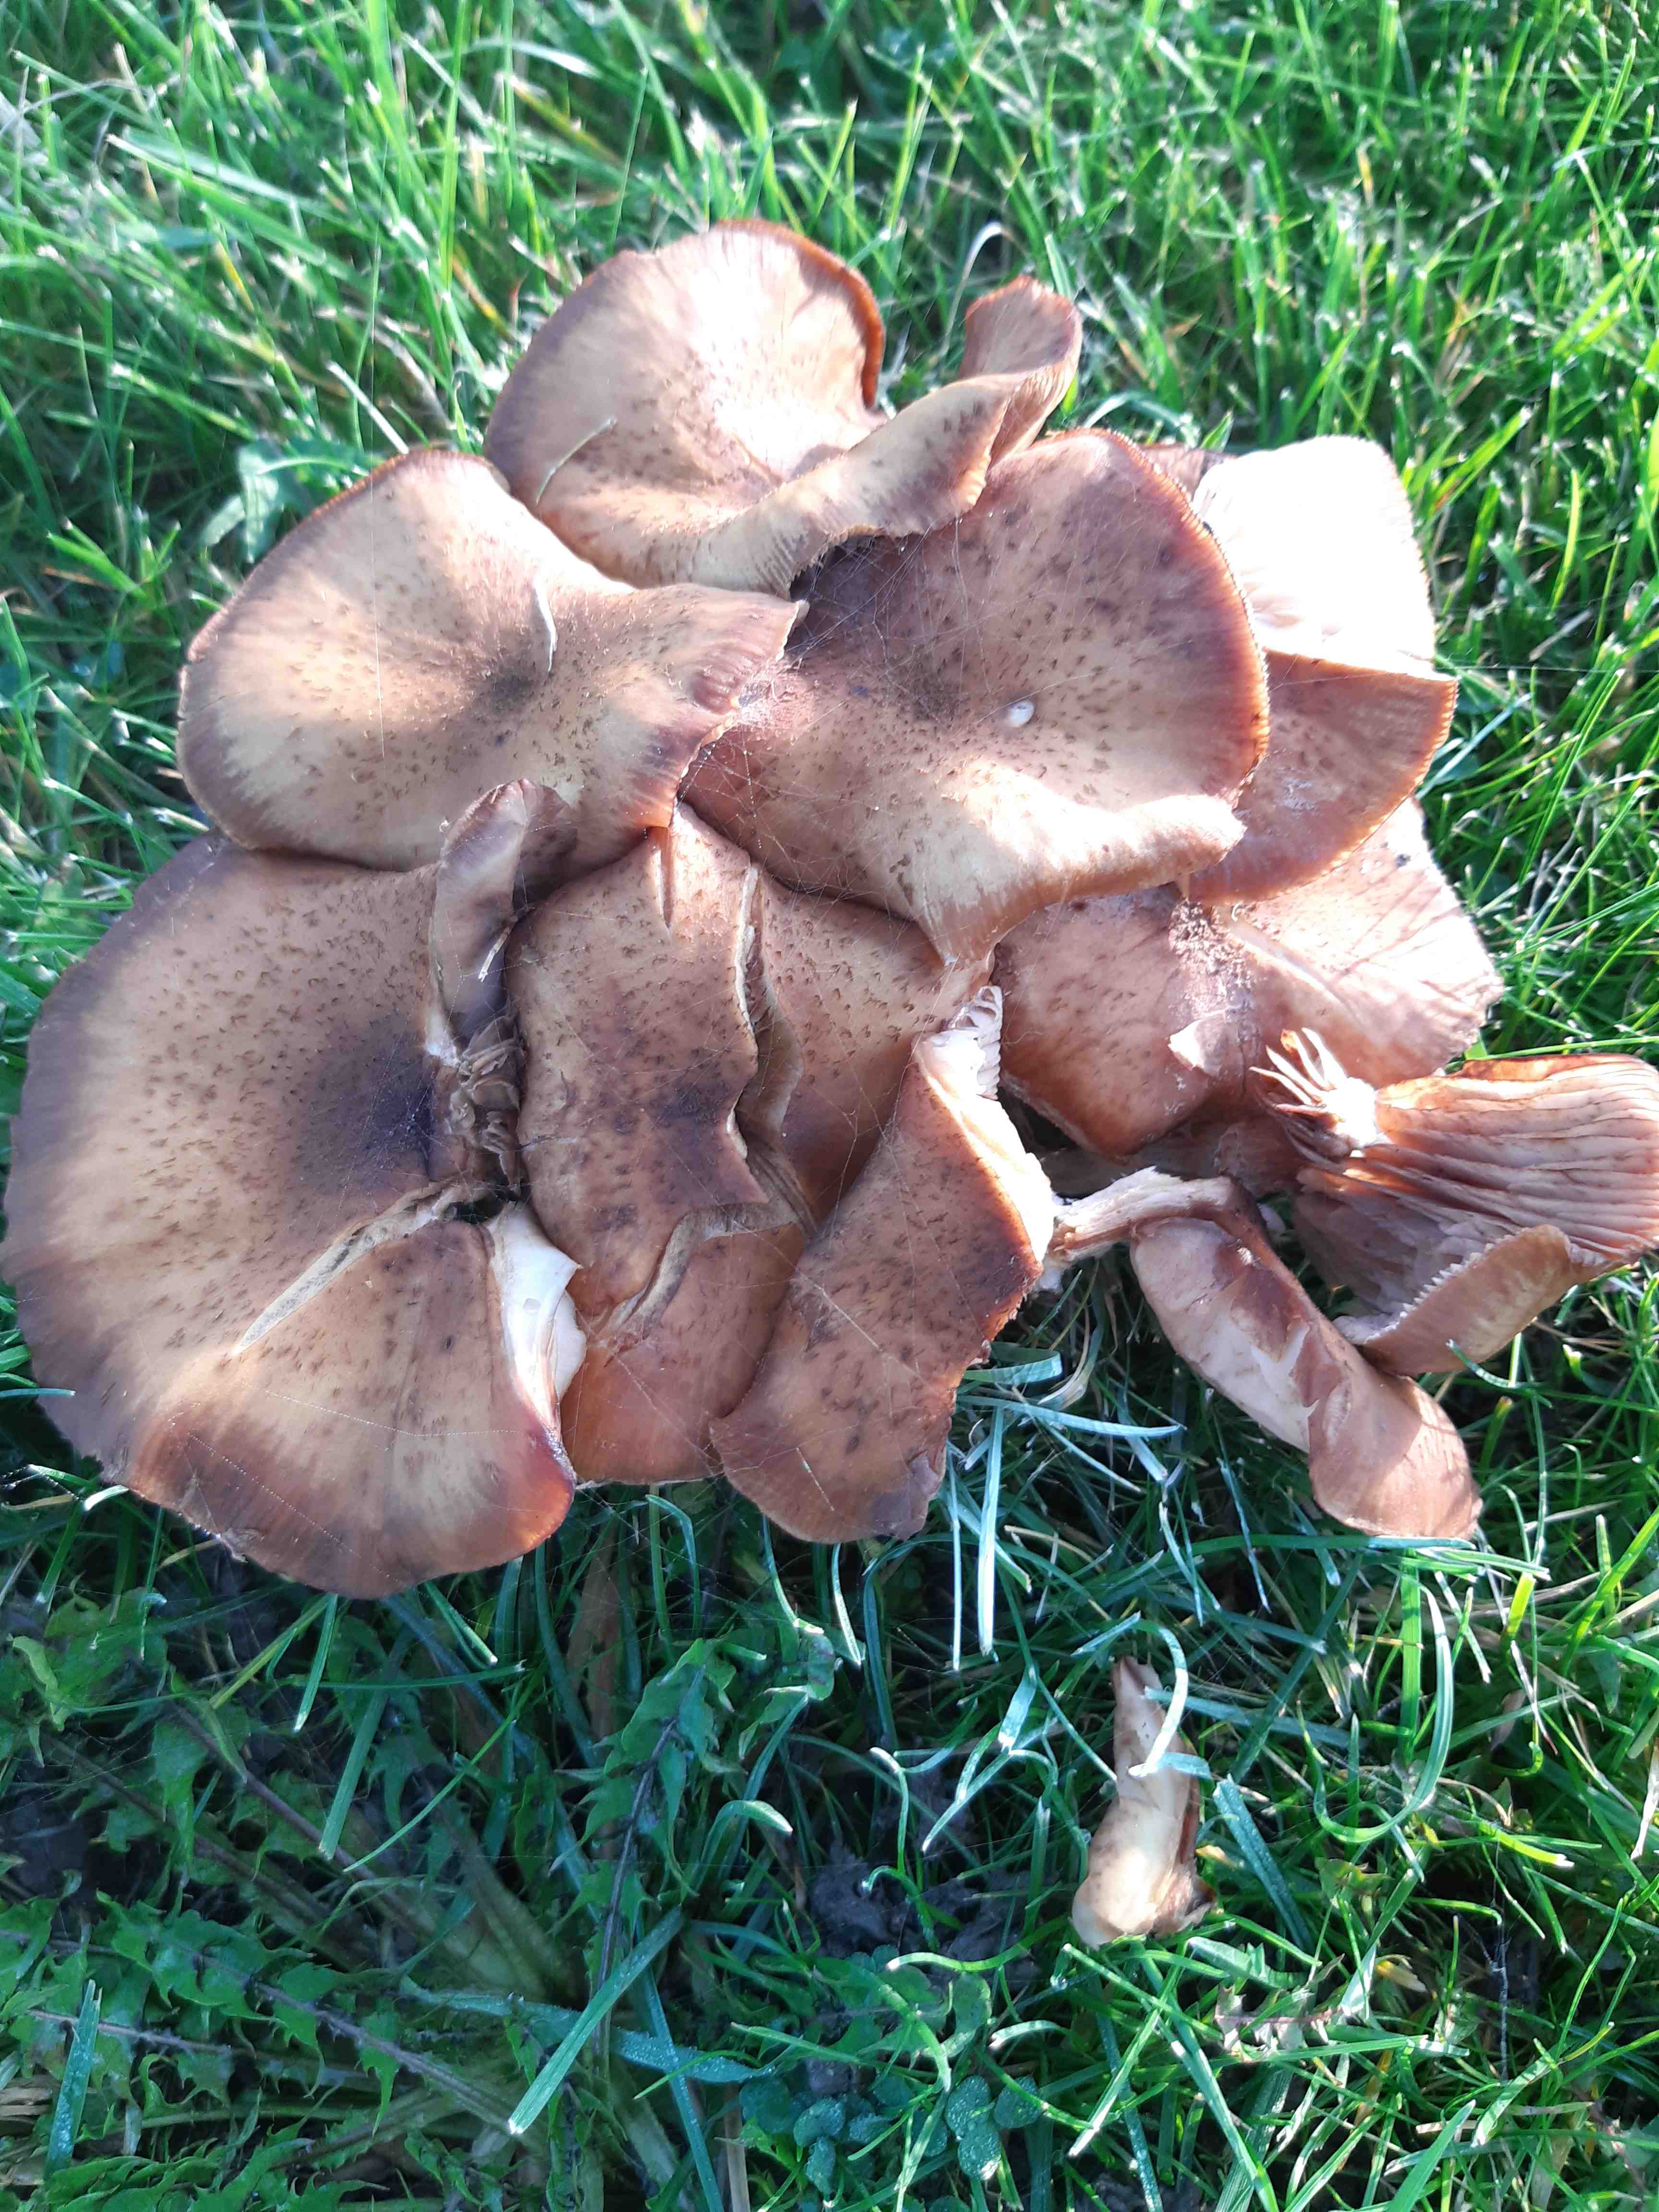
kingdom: Fungi
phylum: Basidiomycota
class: Agaricomycetes
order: Agaricales
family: Physalacriaceae
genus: Armillaria
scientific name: Armillaria
